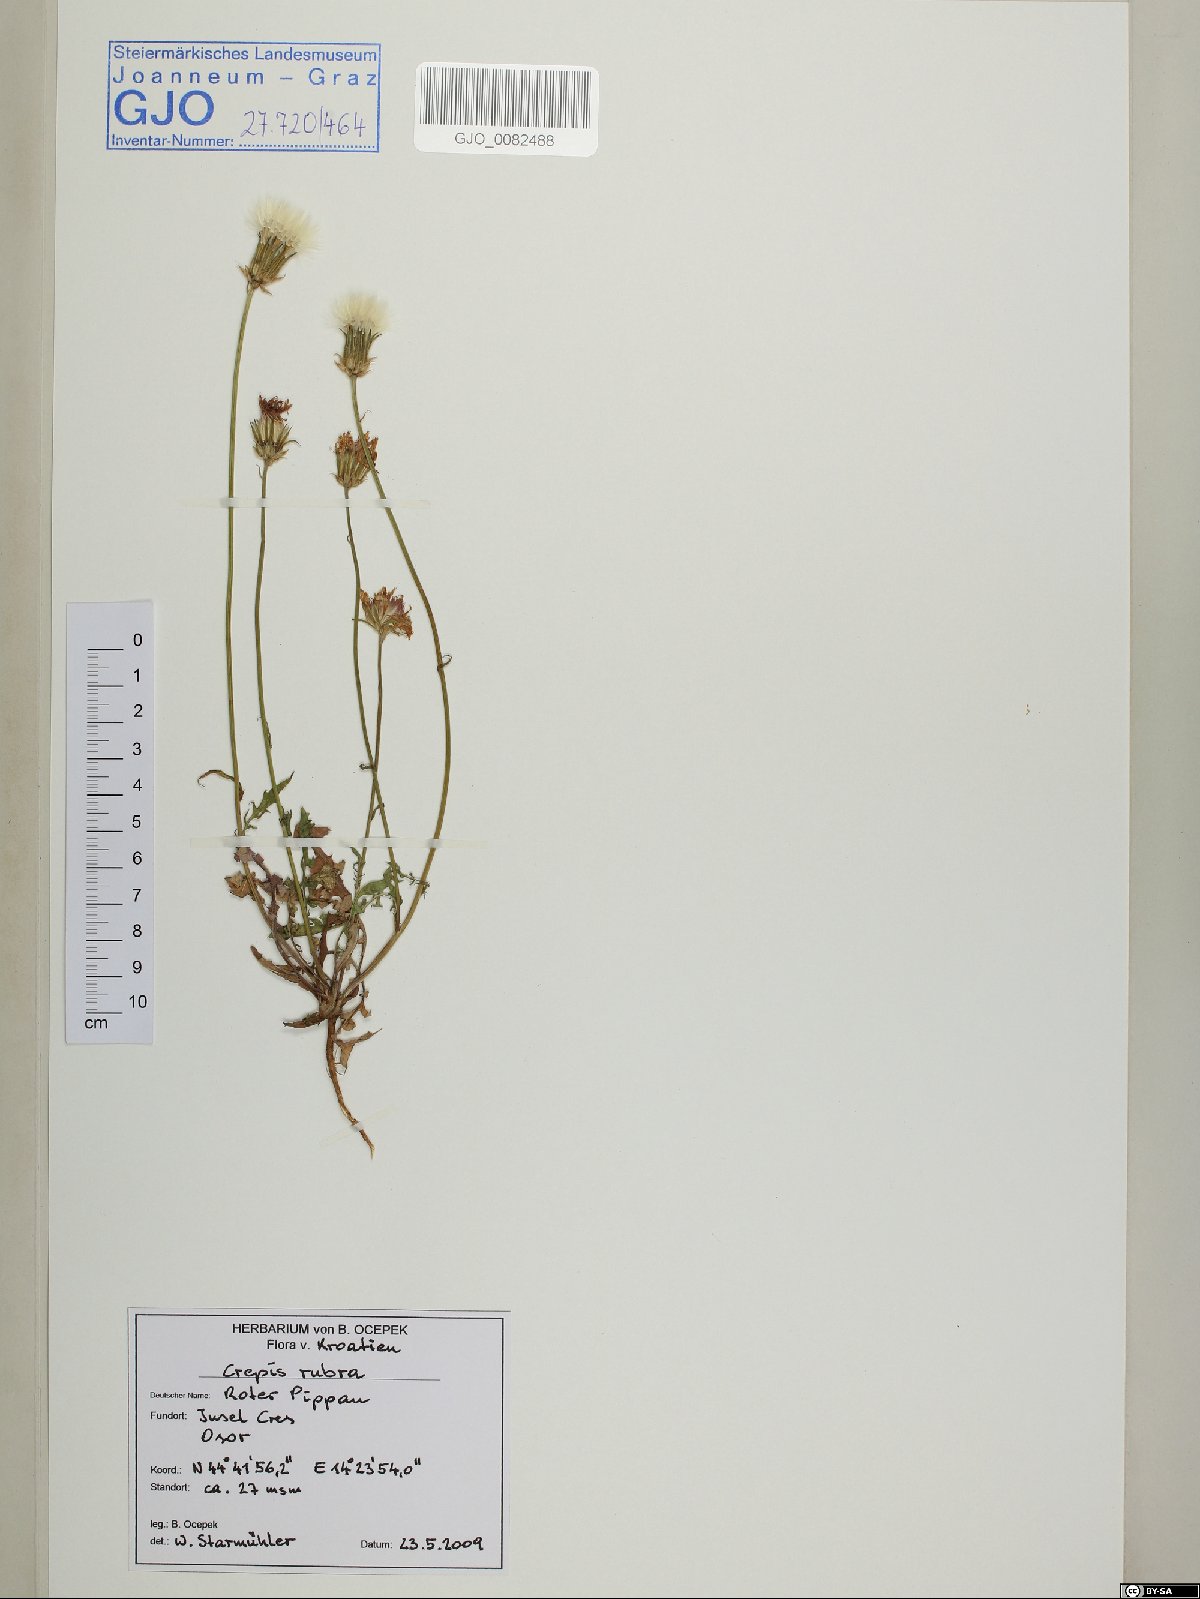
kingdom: Plantae
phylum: Tracheophyta
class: Magnoliopsida
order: Asterales
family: Asteraceae
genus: Crepis
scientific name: Crepis rubra
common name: Pink hawk's-beard
